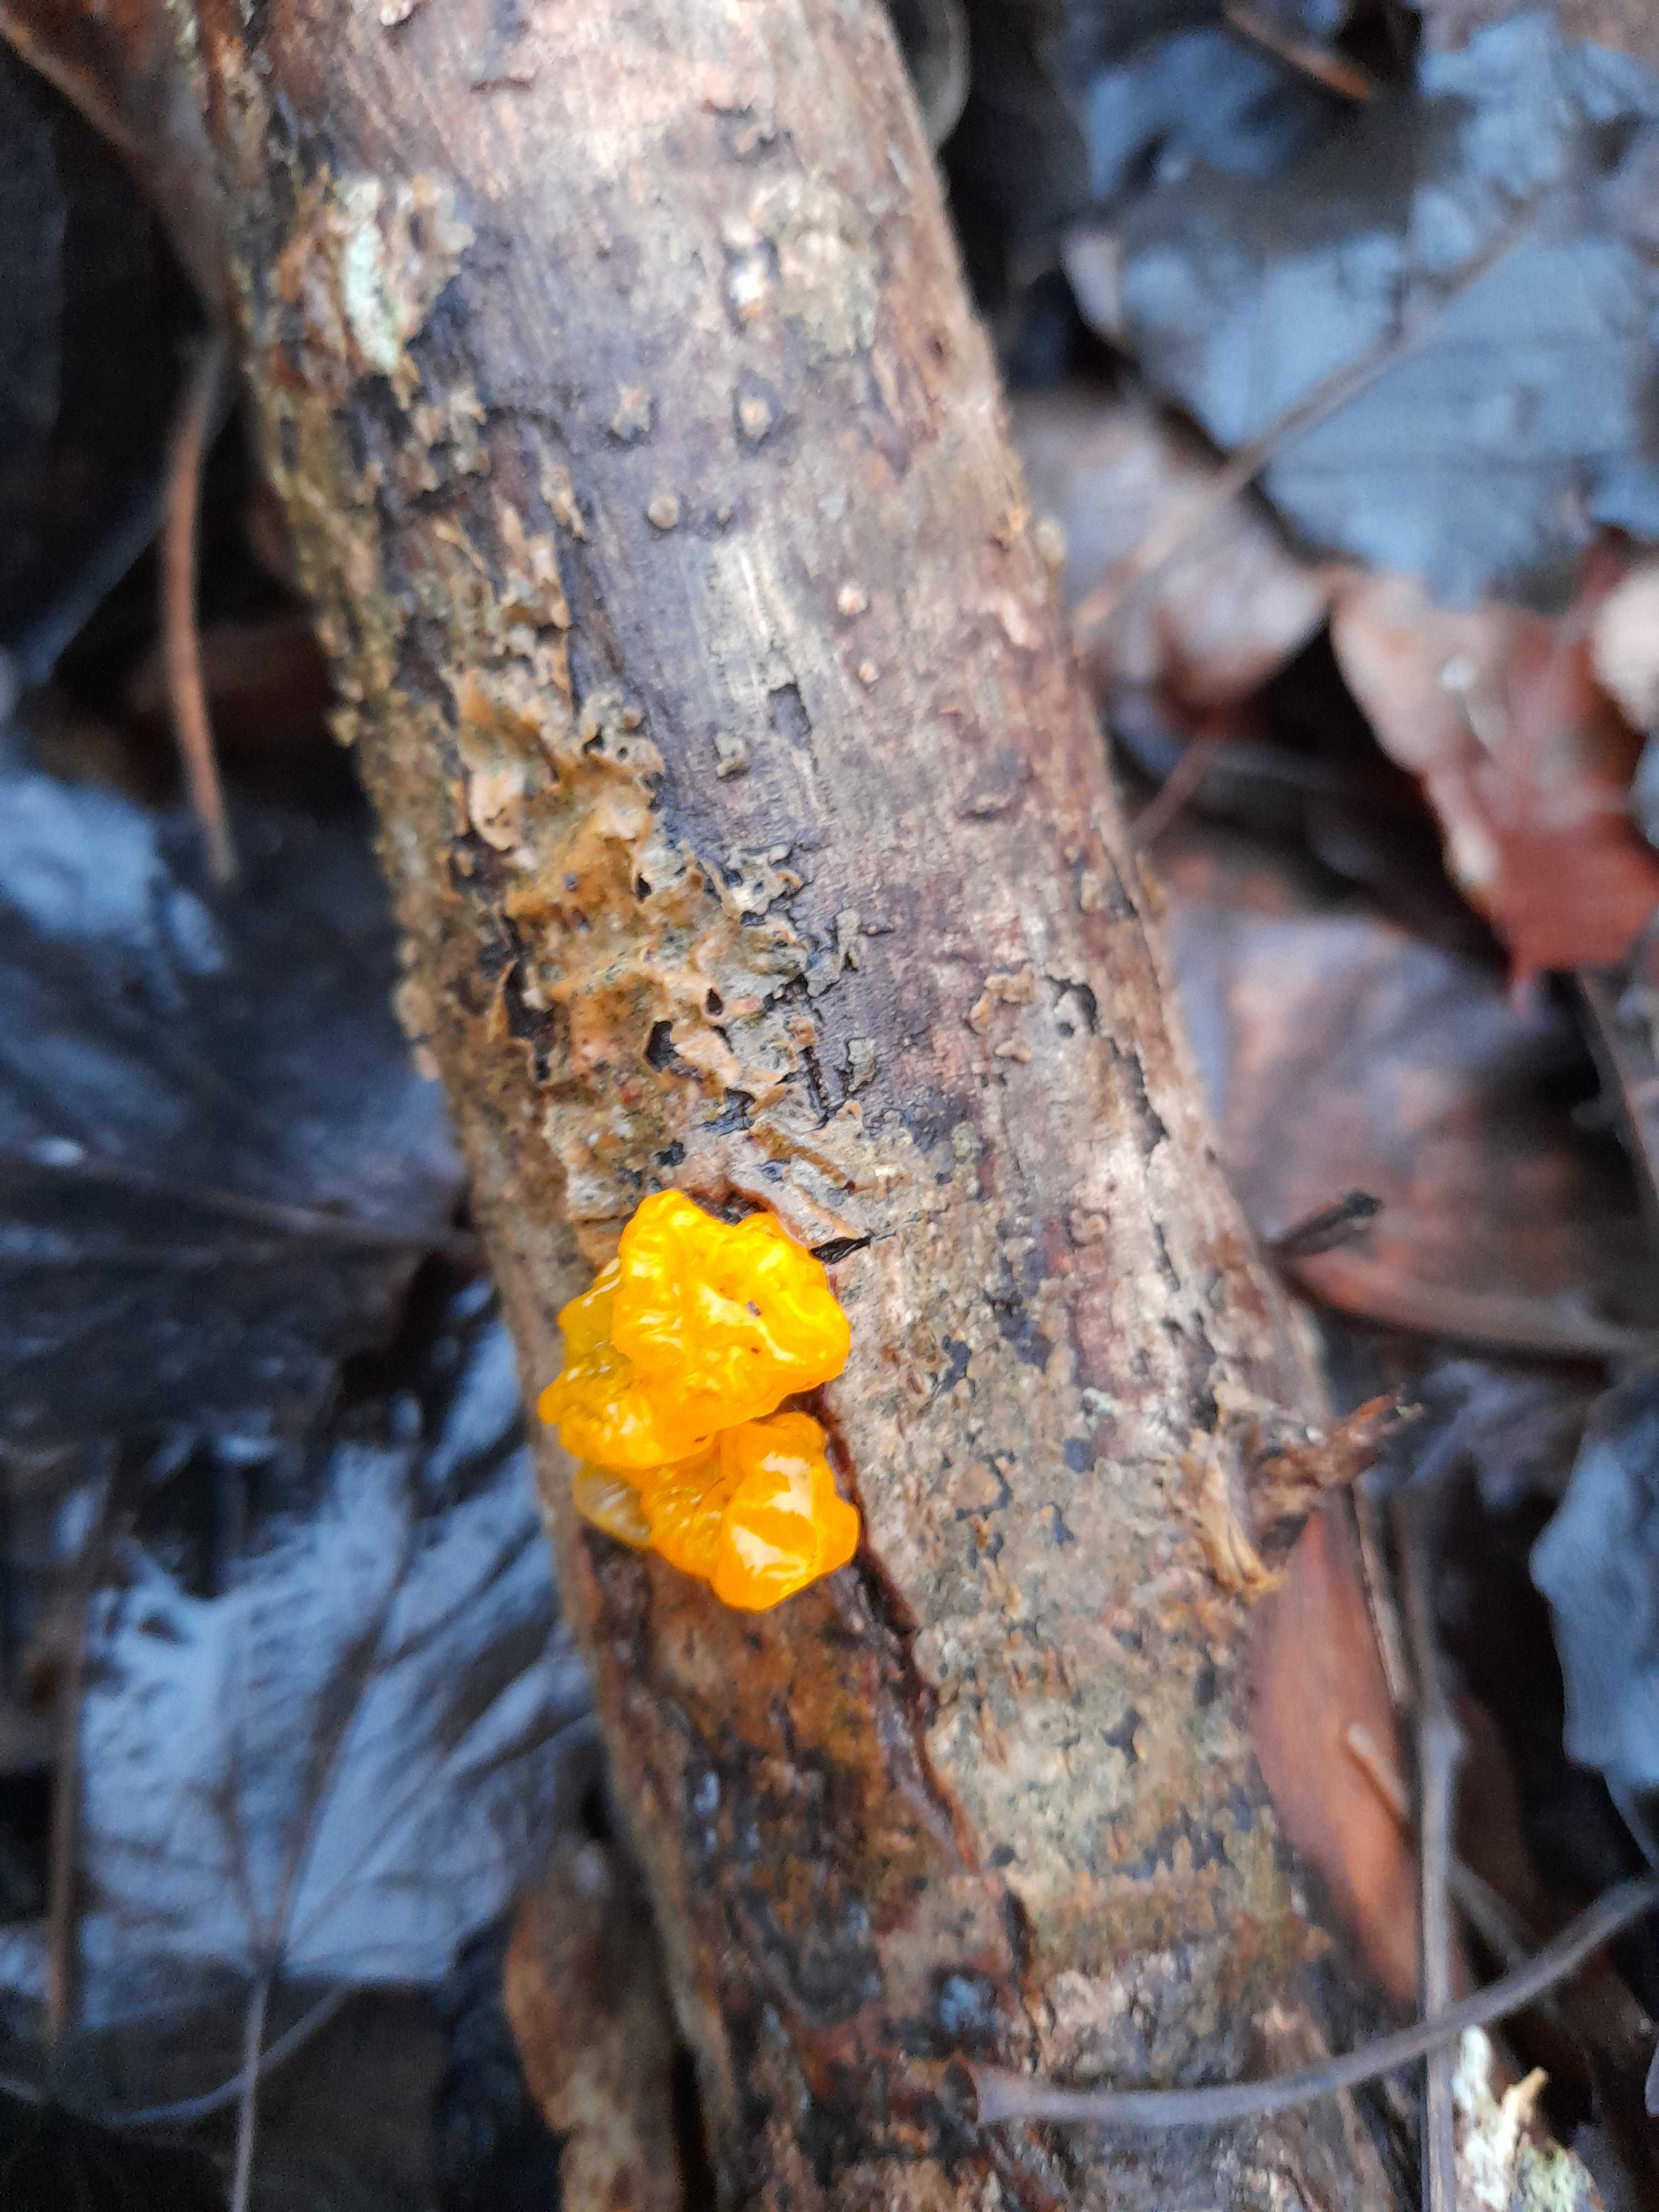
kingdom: Fungi
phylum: Basidiomycota
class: Tremellomycetes
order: Tremellales
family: Tremellaceae
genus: Tremella
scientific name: Tremella mesenterica
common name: gul bævresvamp
